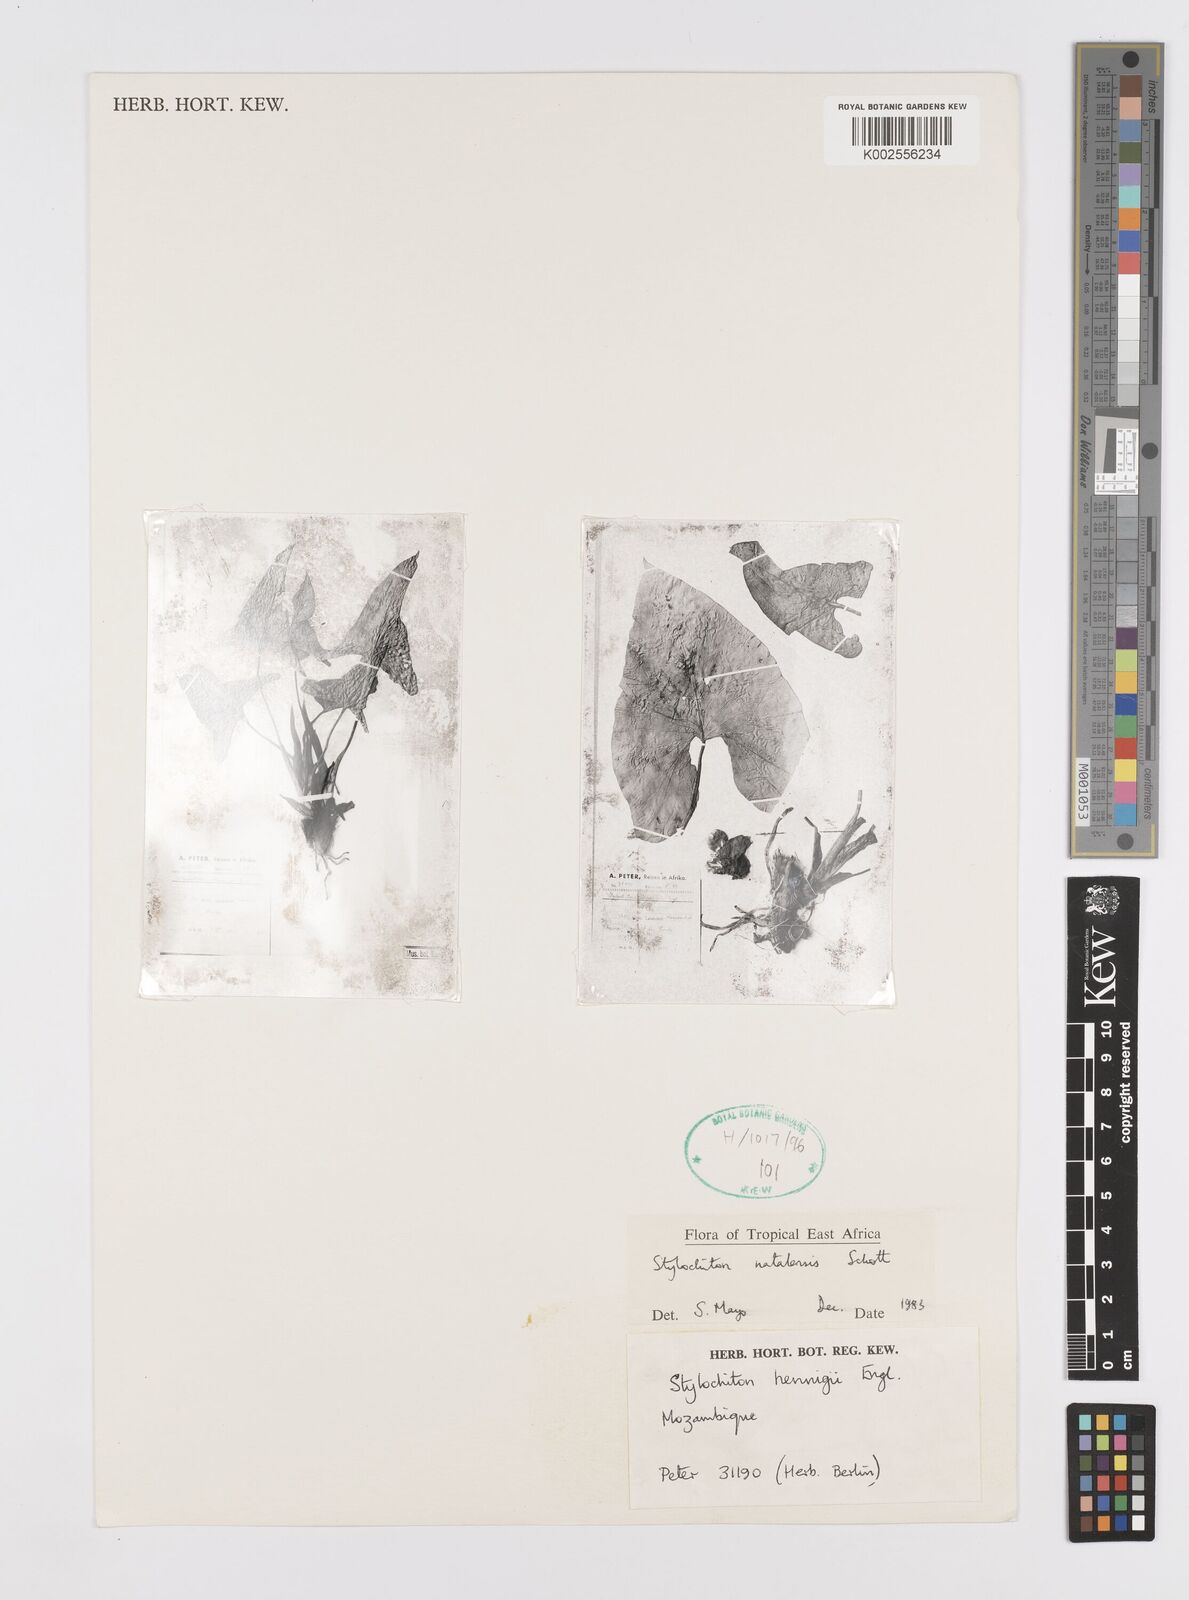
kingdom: Plantae
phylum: Tracheophyta
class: Liliopsida
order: Alismatales
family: Araceae
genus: Stylochaeton
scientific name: Stylochaeton natalense
